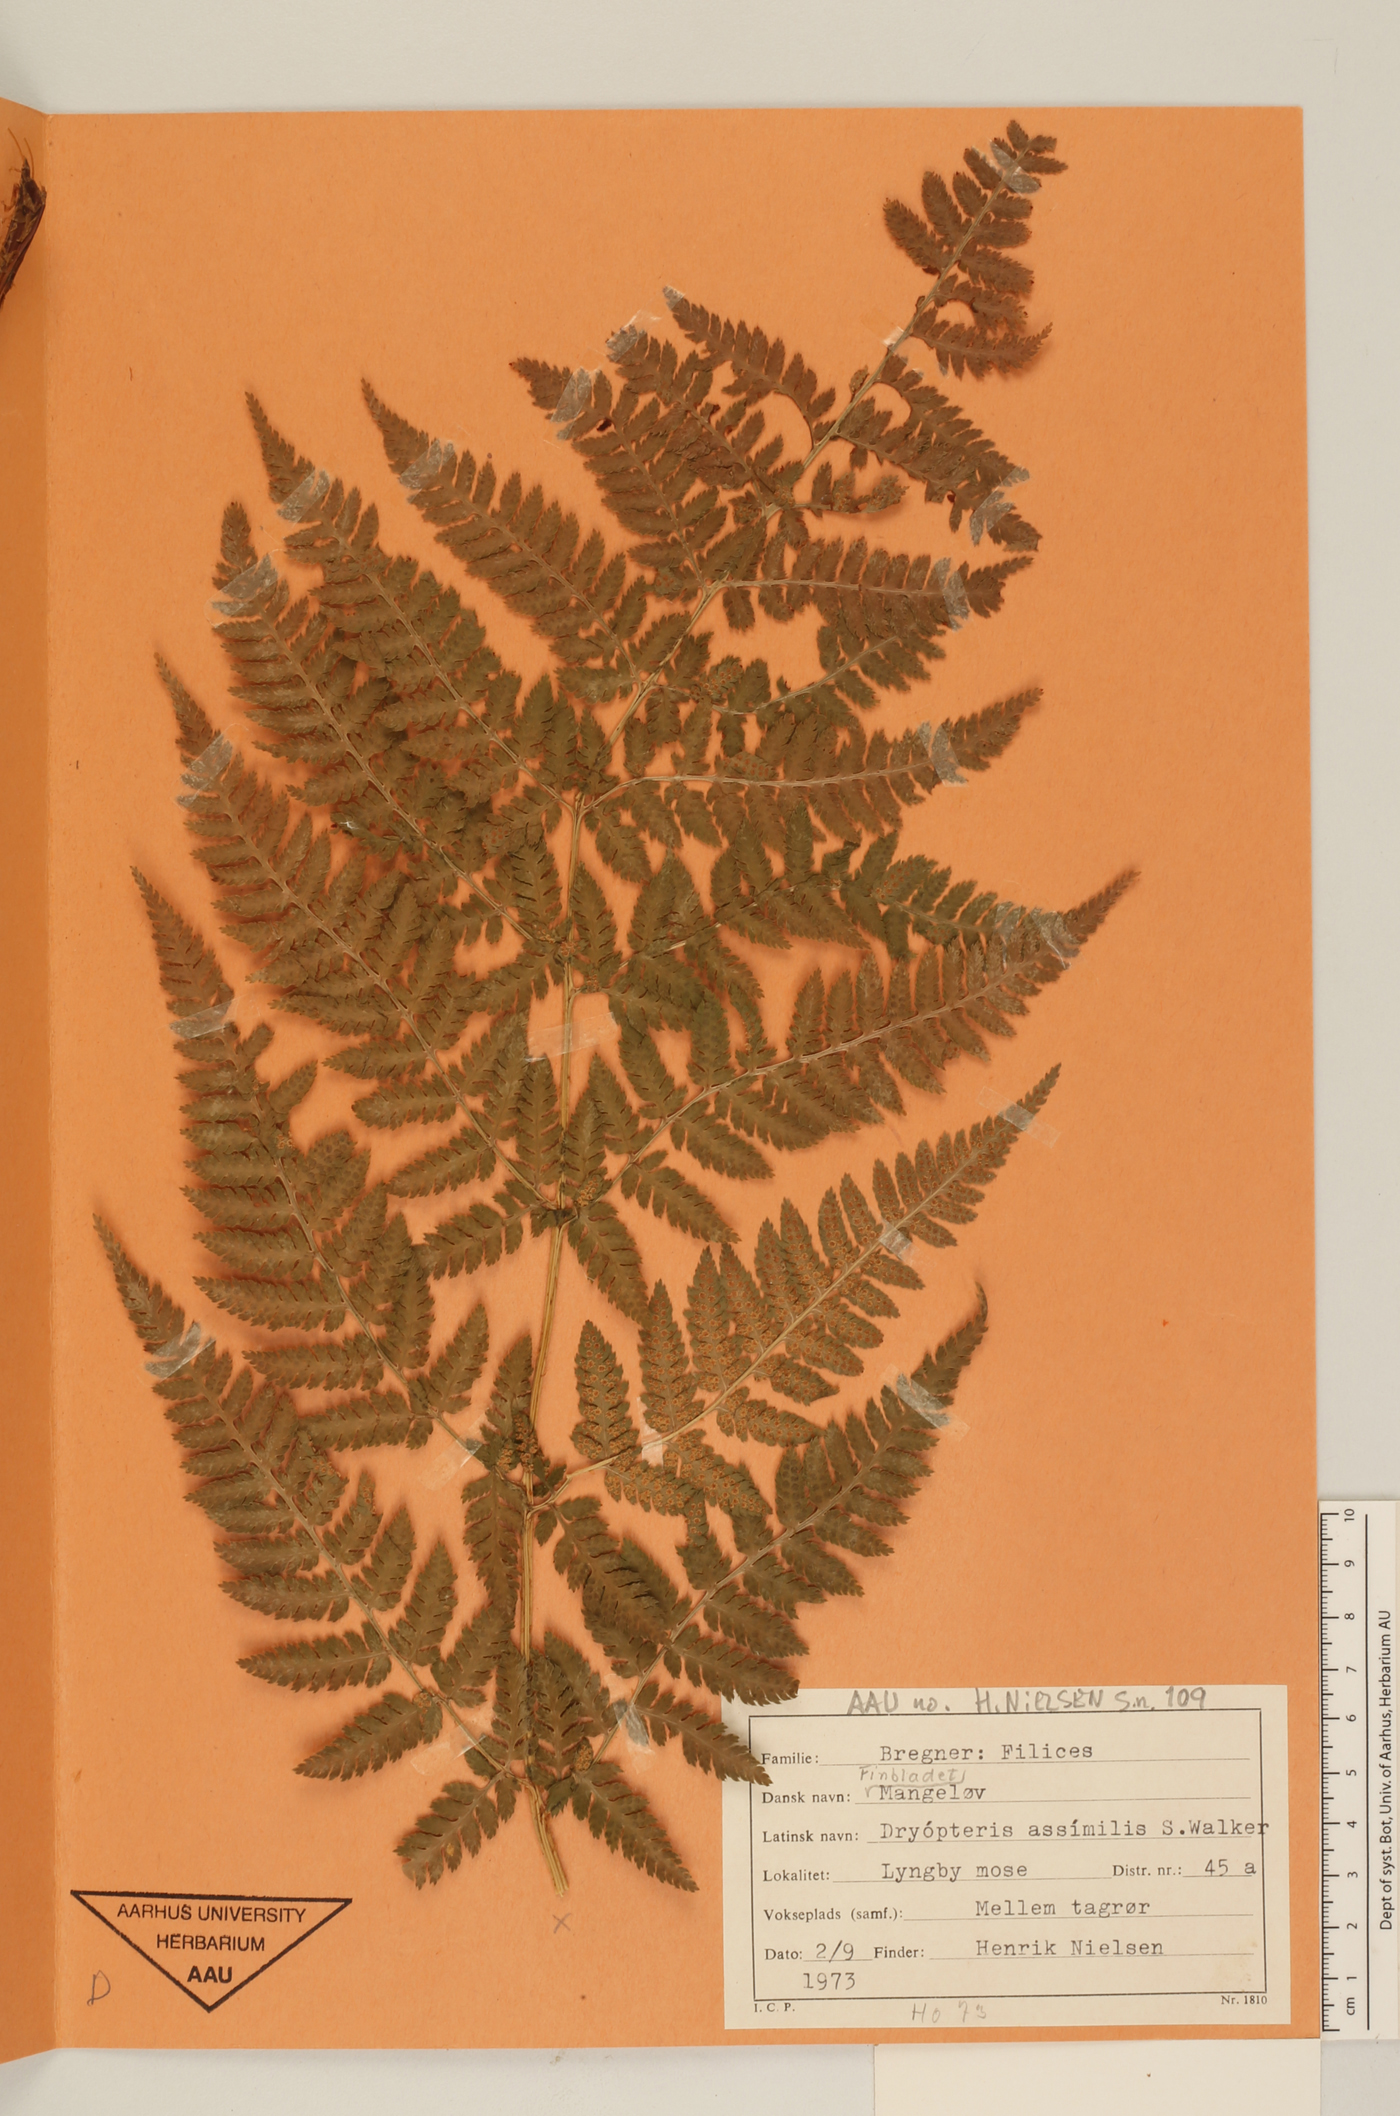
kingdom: Plantae
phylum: Tracheophyta
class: Polypodiopsida
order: Polypodiales
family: Dryopteridaceae
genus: Dryopteris
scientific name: Dryopteris expansa
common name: Northern buckler fern
